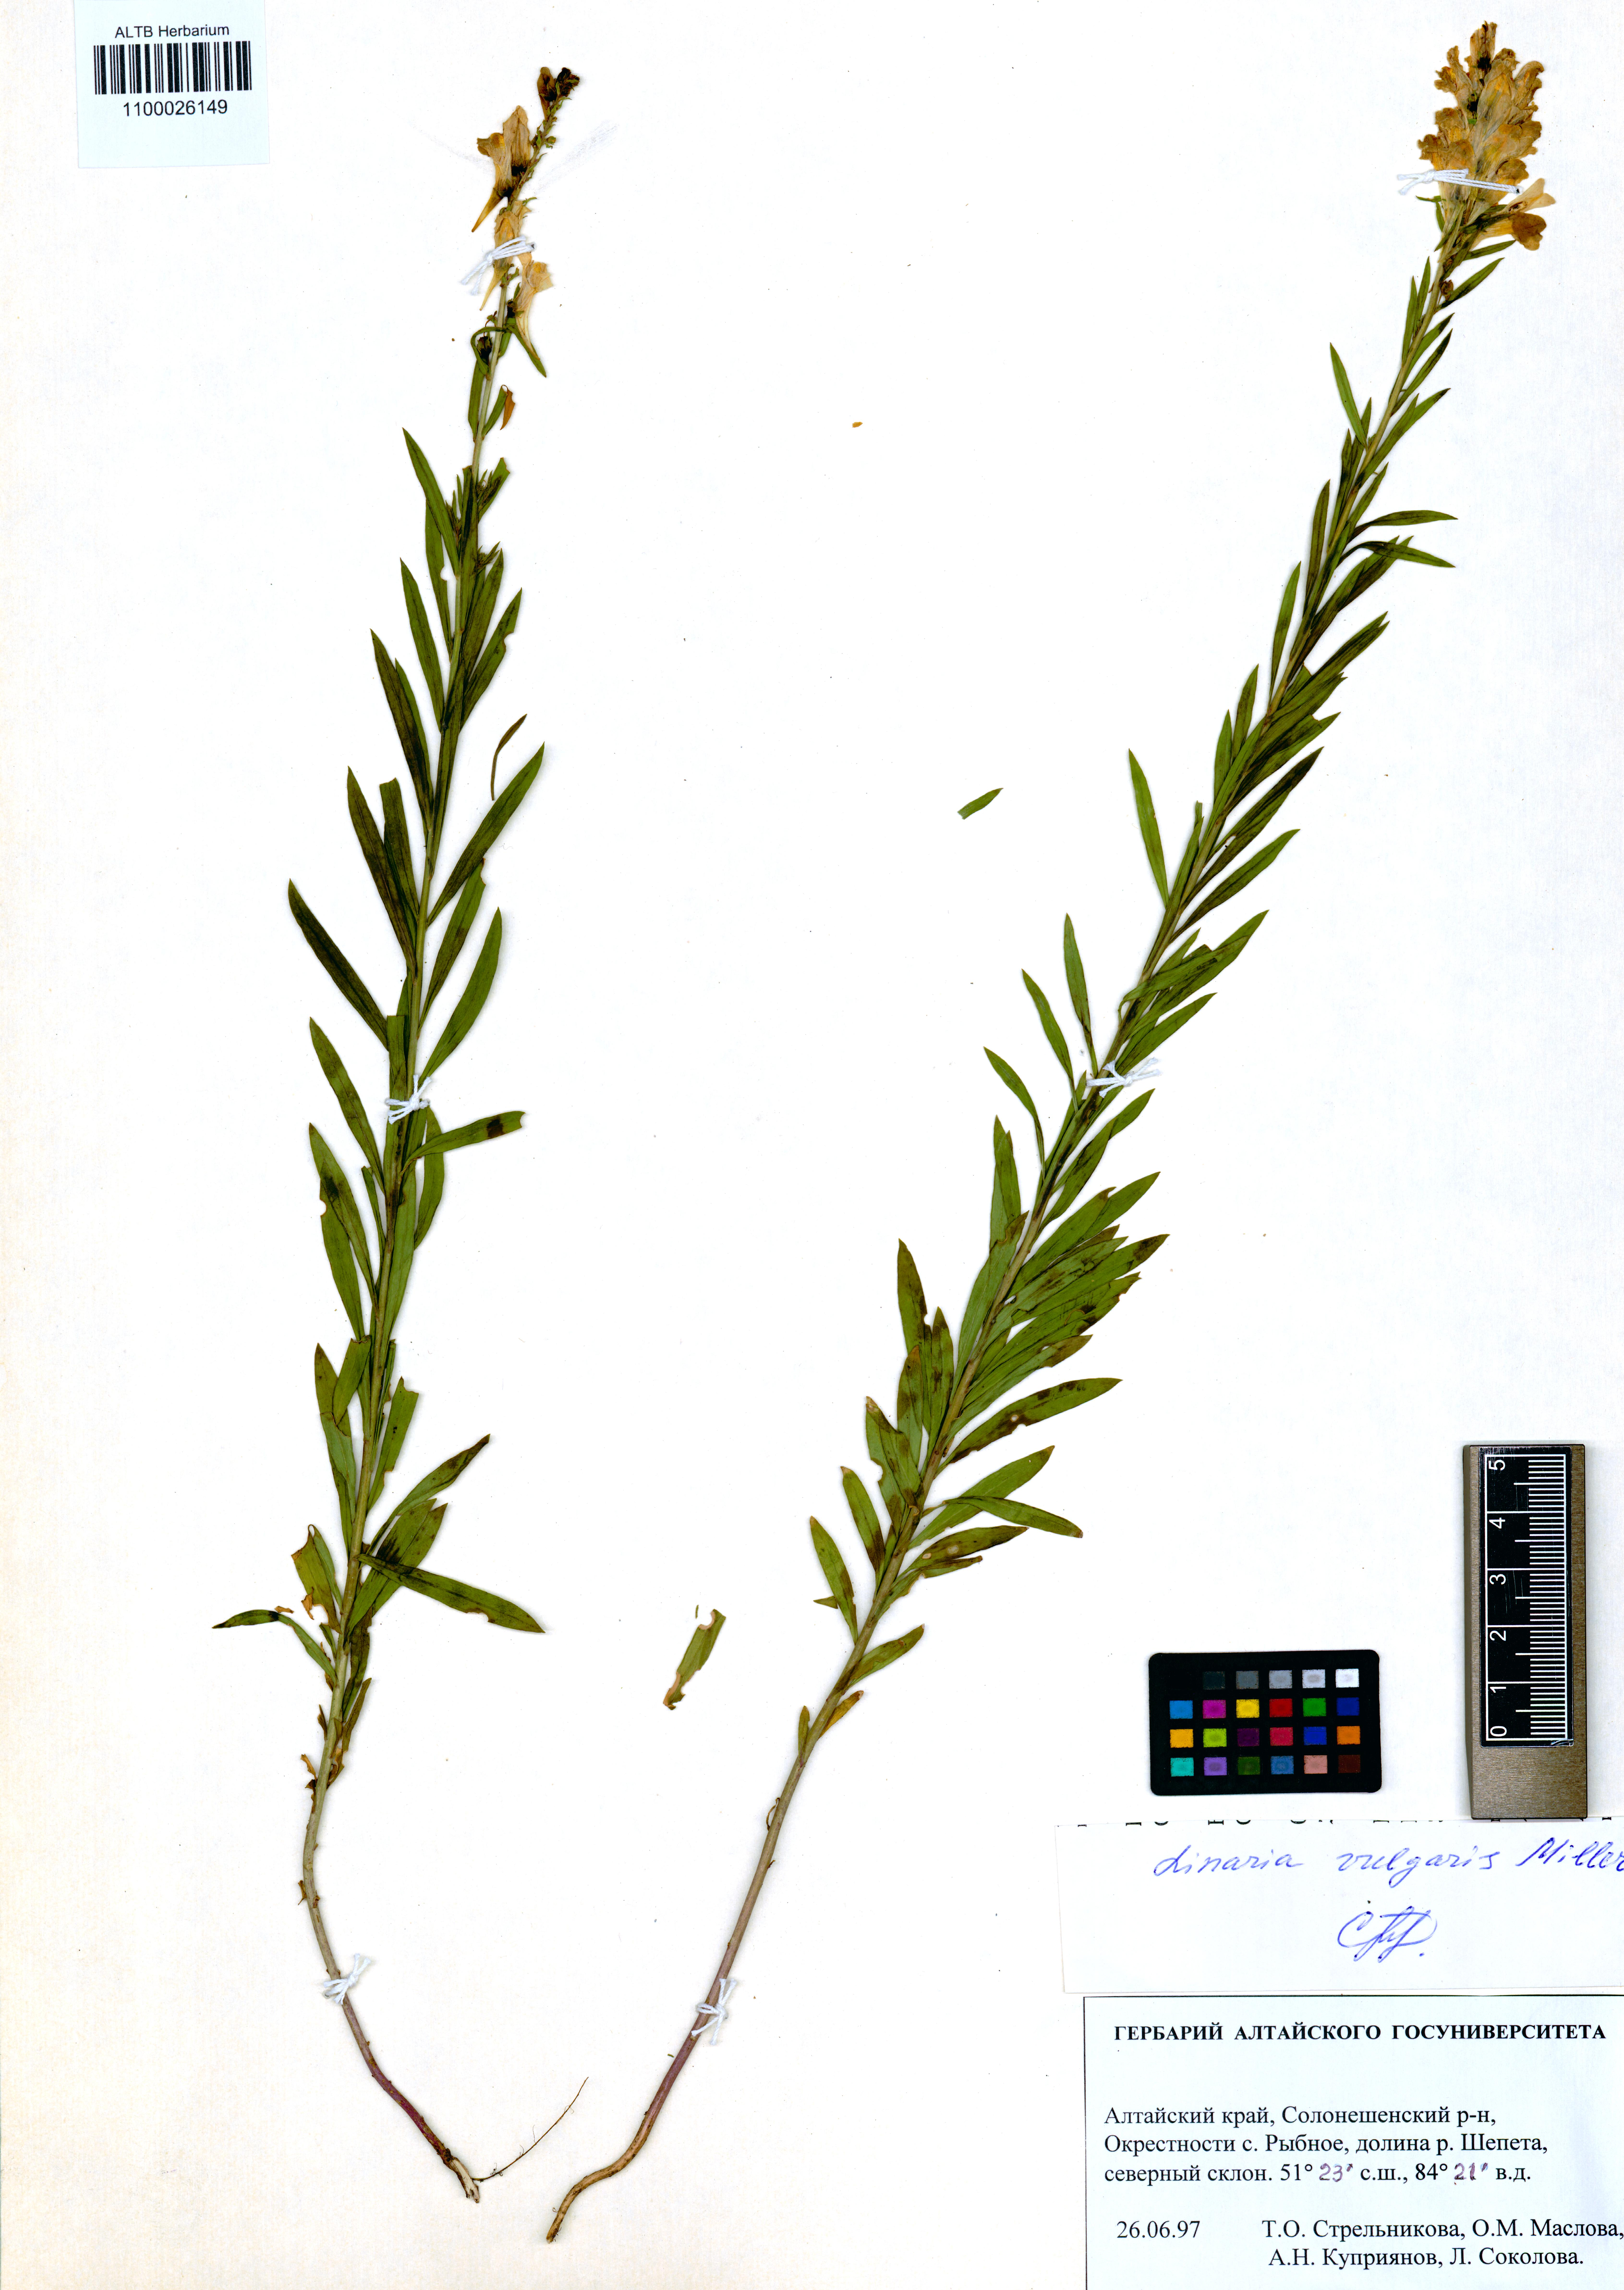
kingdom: Plantae
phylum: Tracheophyta
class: Magnoliopsida
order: Lamiales
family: Plantaginaceae
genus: Linaria
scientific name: Linaria vulgaris
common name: Butter and eggs
